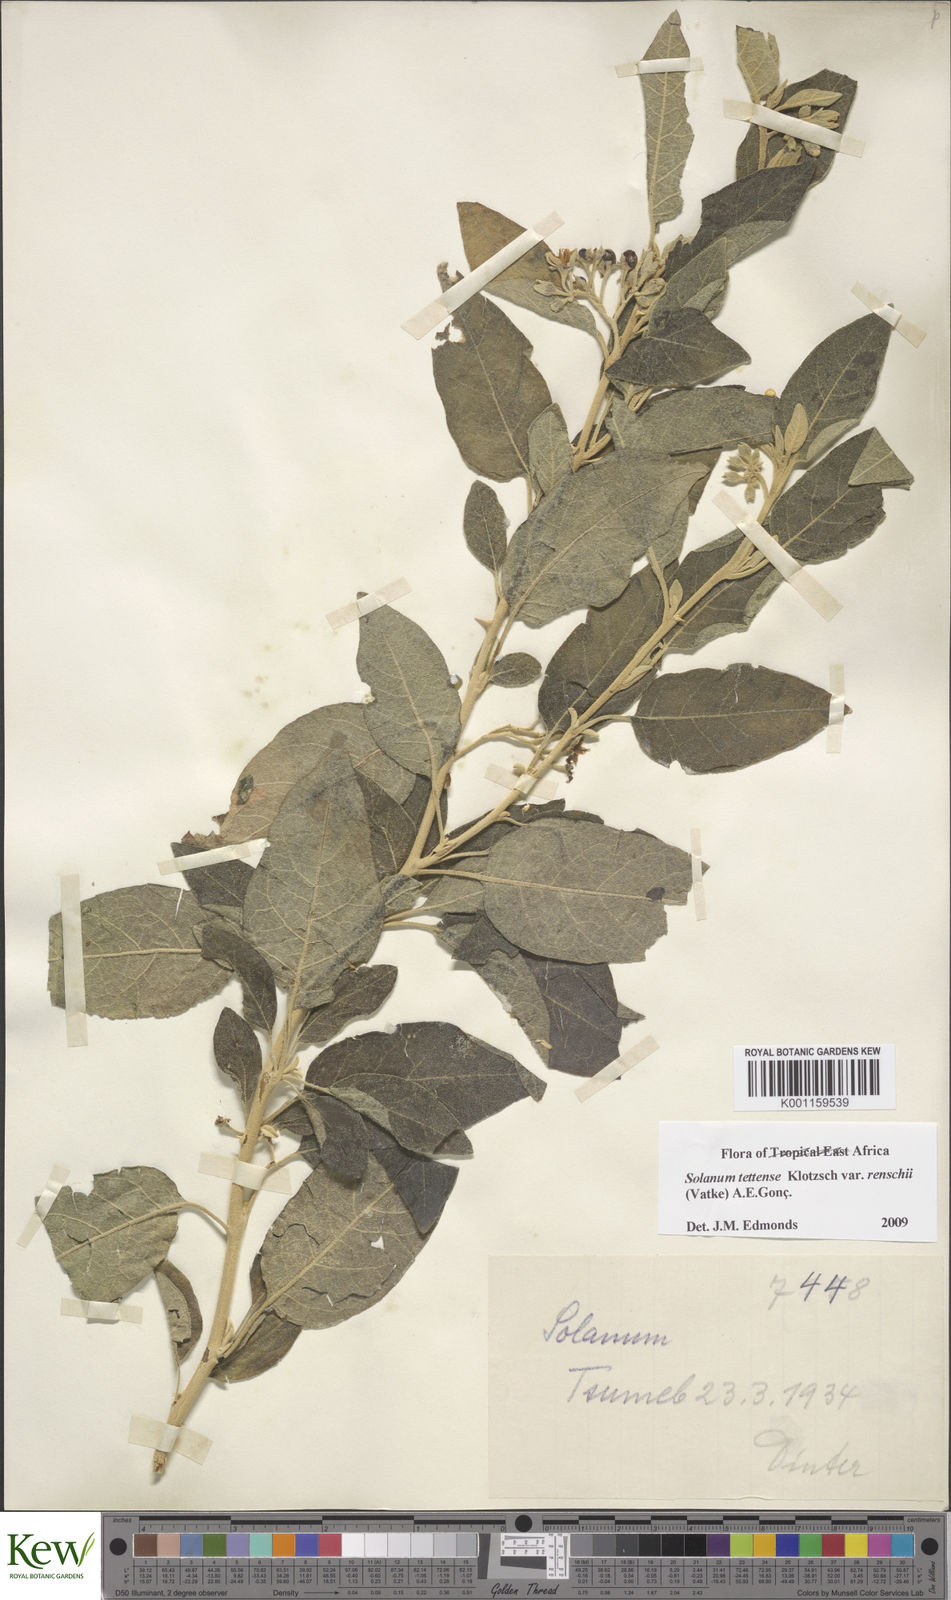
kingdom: Plantae
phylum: Tracheophyta
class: Magnoliopsida
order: Solanales
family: Solanaceae
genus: Solanum
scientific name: Solanum tettense
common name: Mozambique bitter apple
